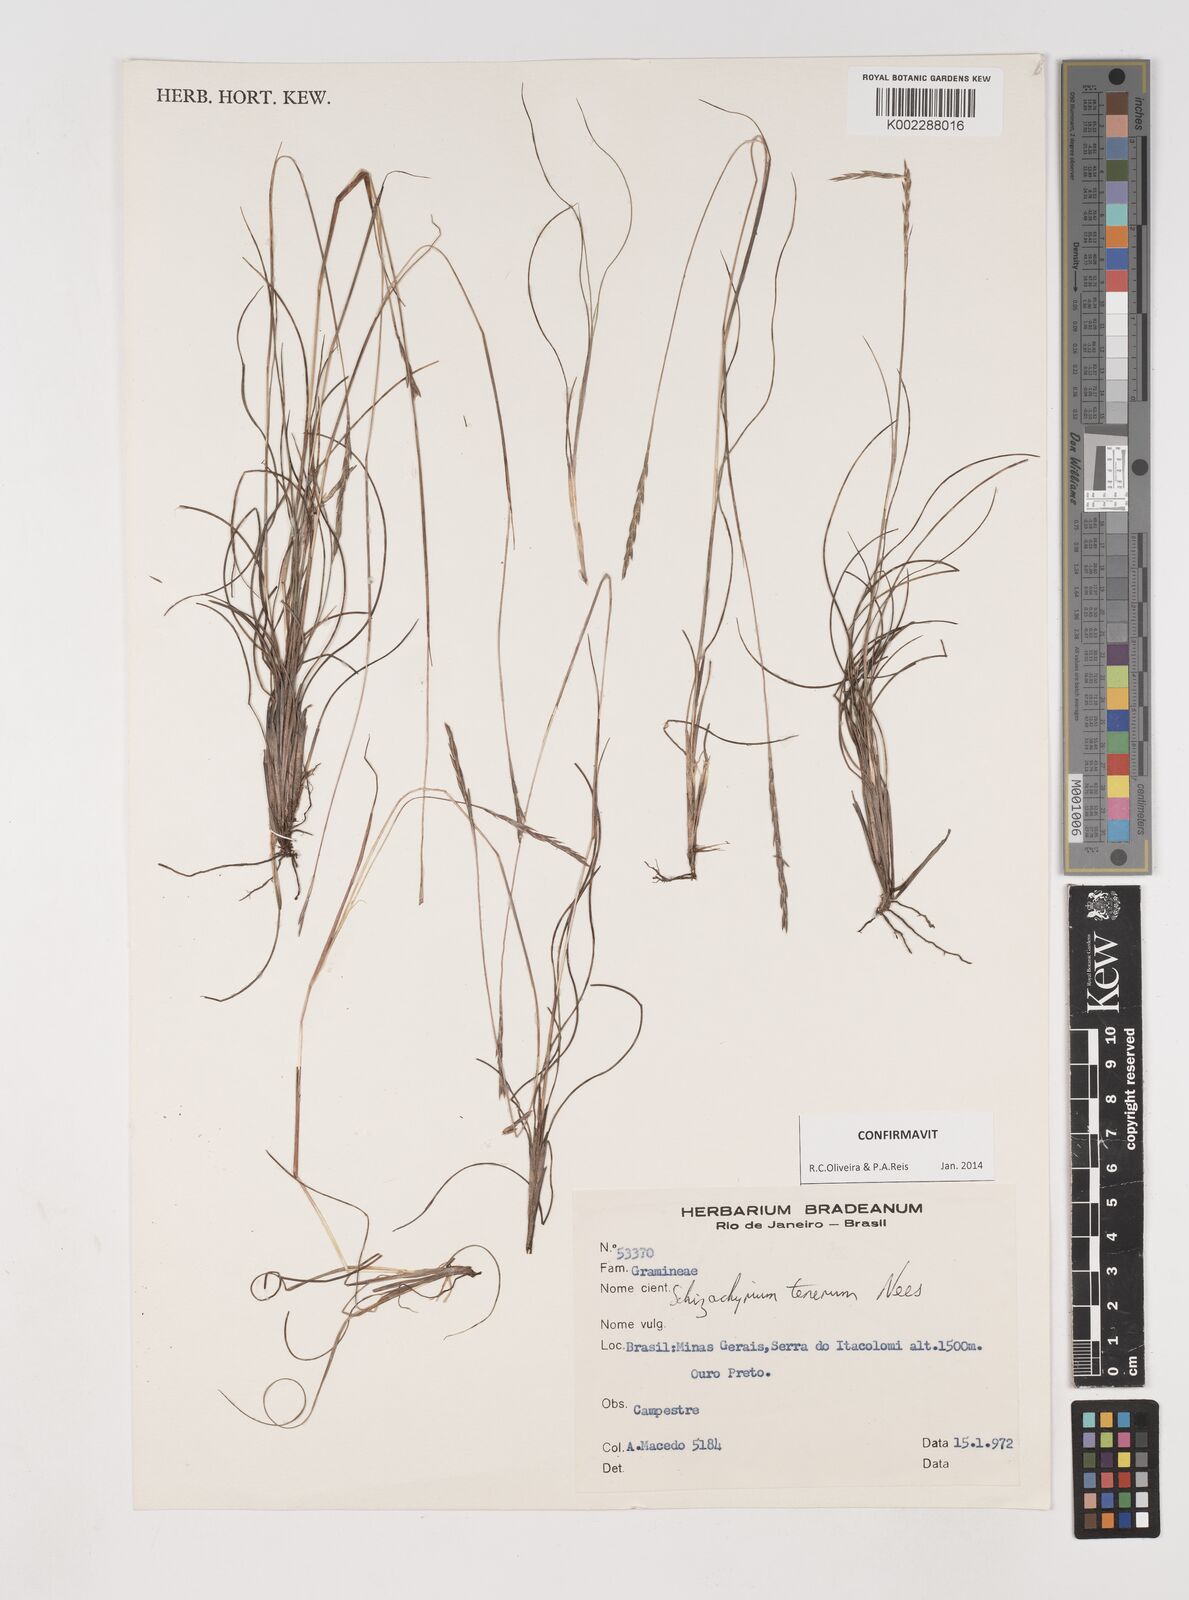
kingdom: Plantae
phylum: Tracheophyta
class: Liliopsida
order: Poales
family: Poaceae
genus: Andropogon
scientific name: Andropogon tener
